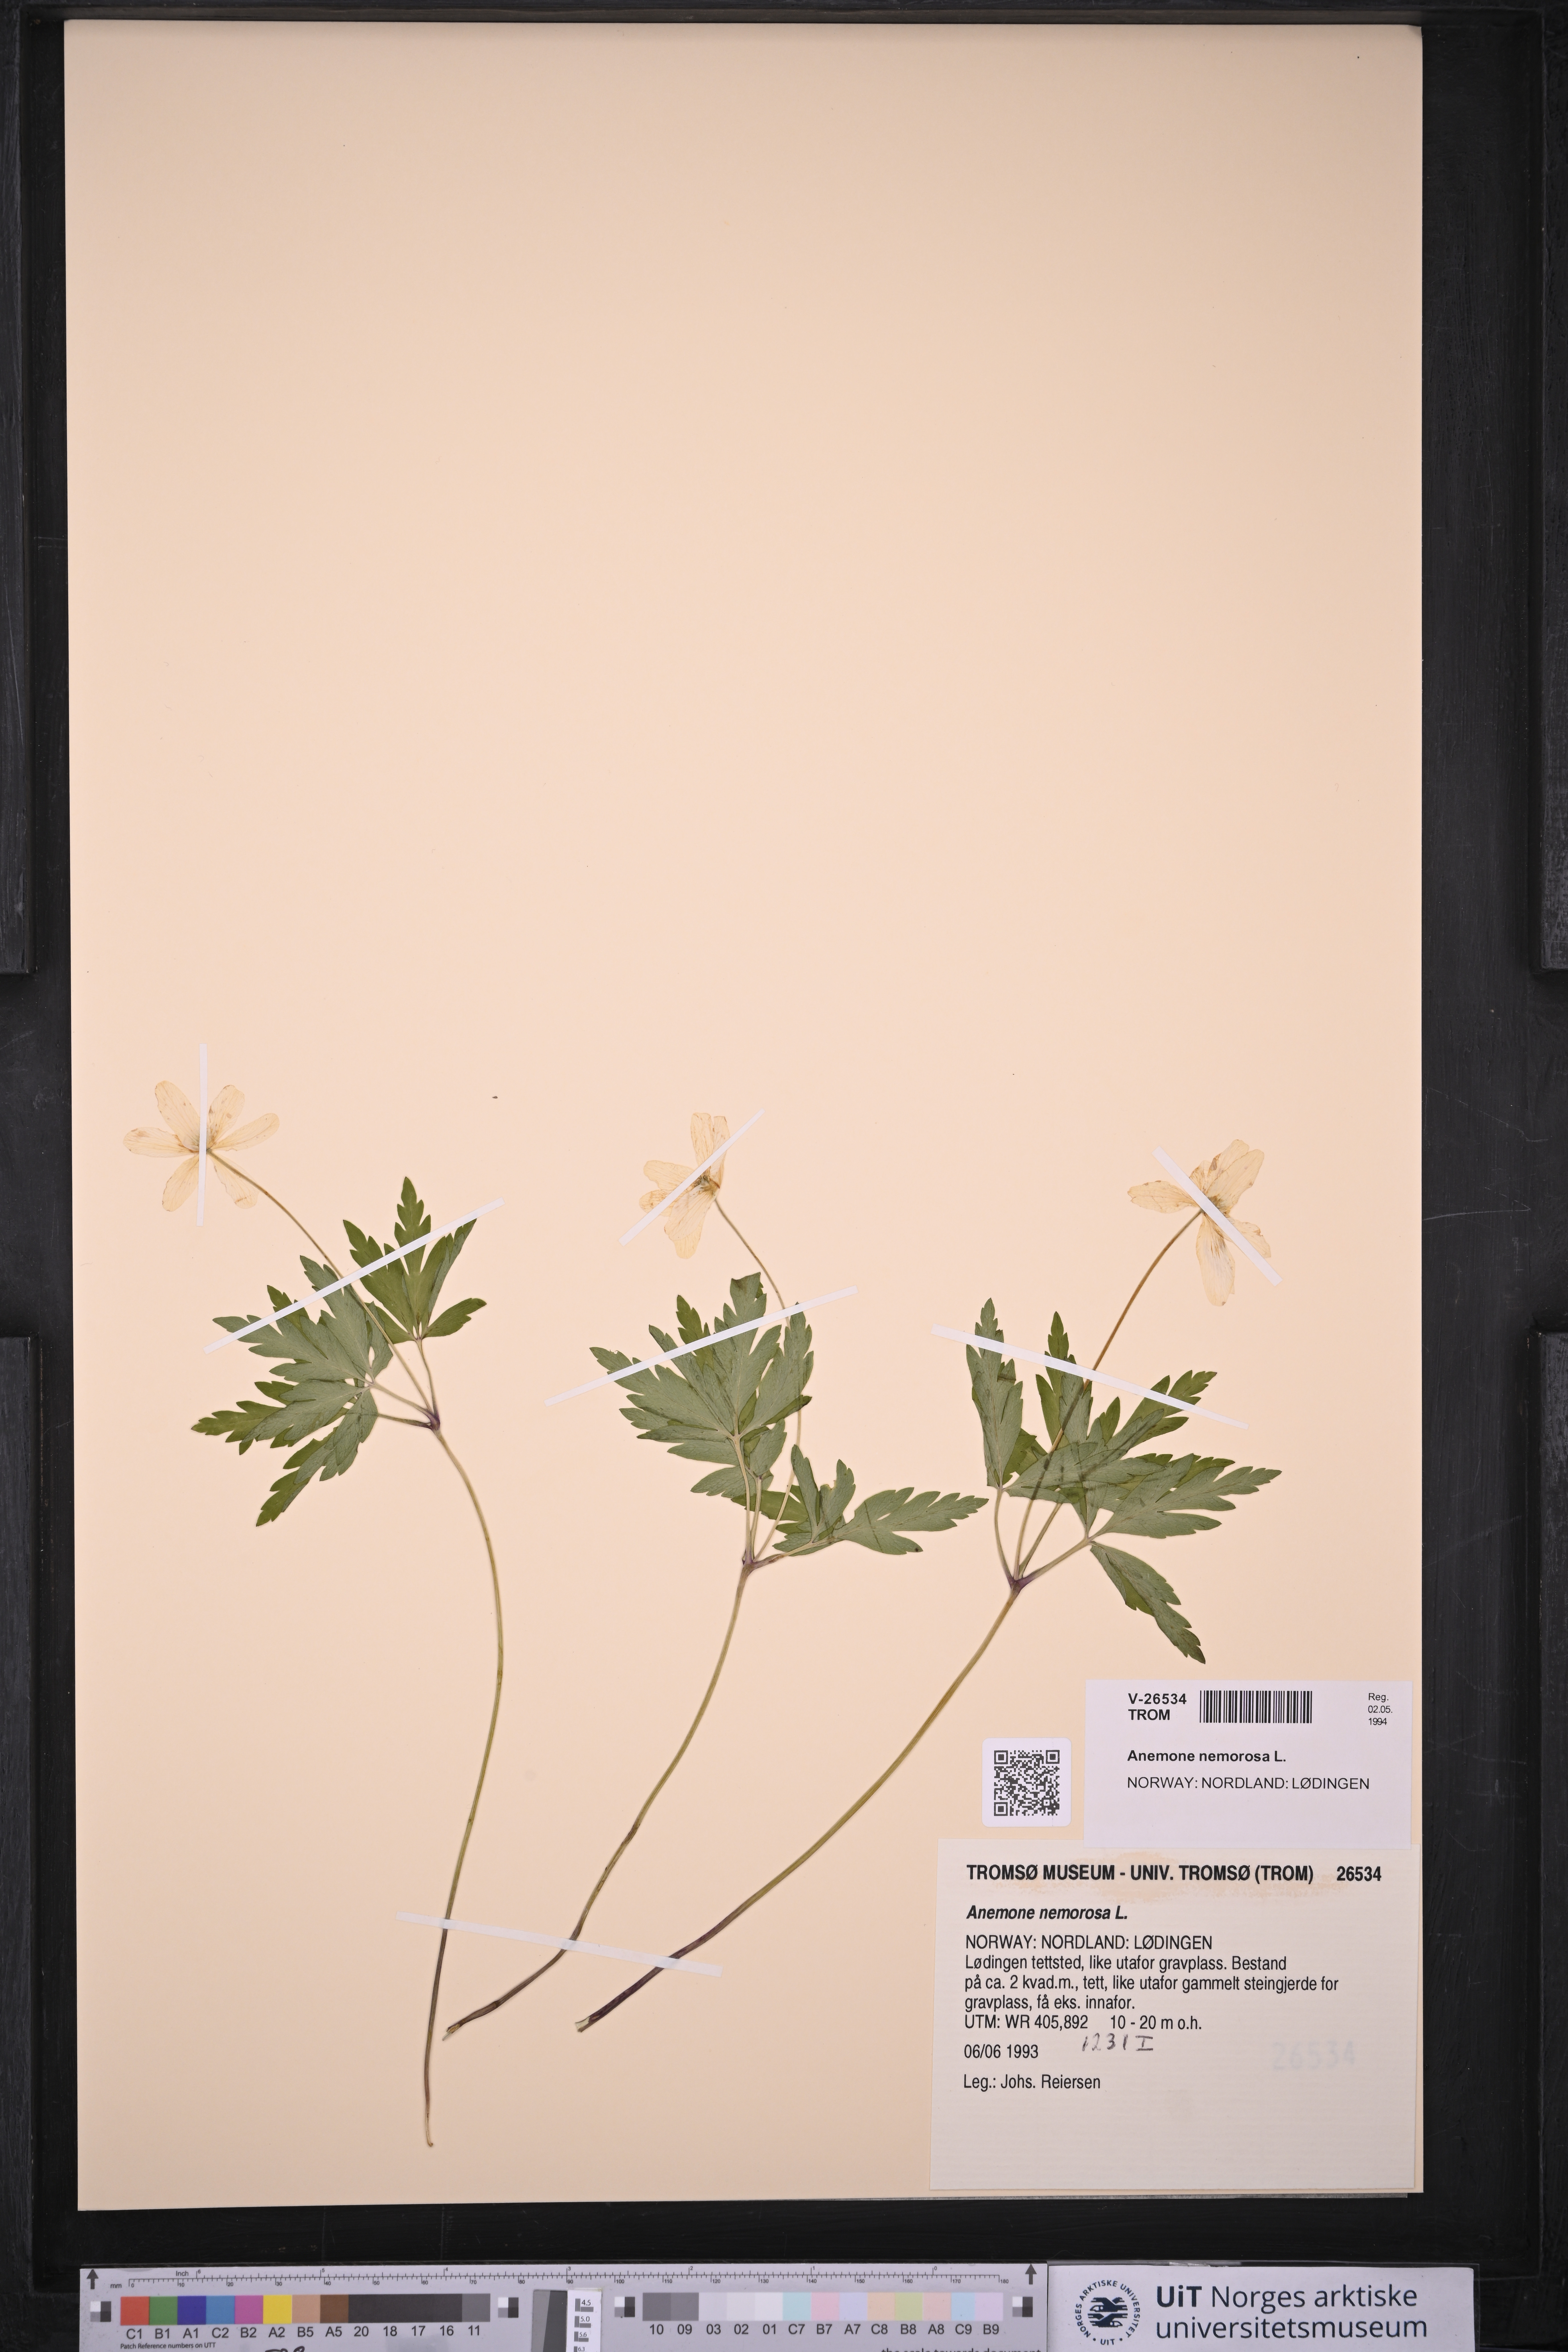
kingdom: Plantae
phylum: Tracheophyta
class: Magnoliopsida
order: Ranunculales
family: Ranunculaceae
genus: Anemone
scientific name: Anemone nemorosa
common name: Wood anemone
